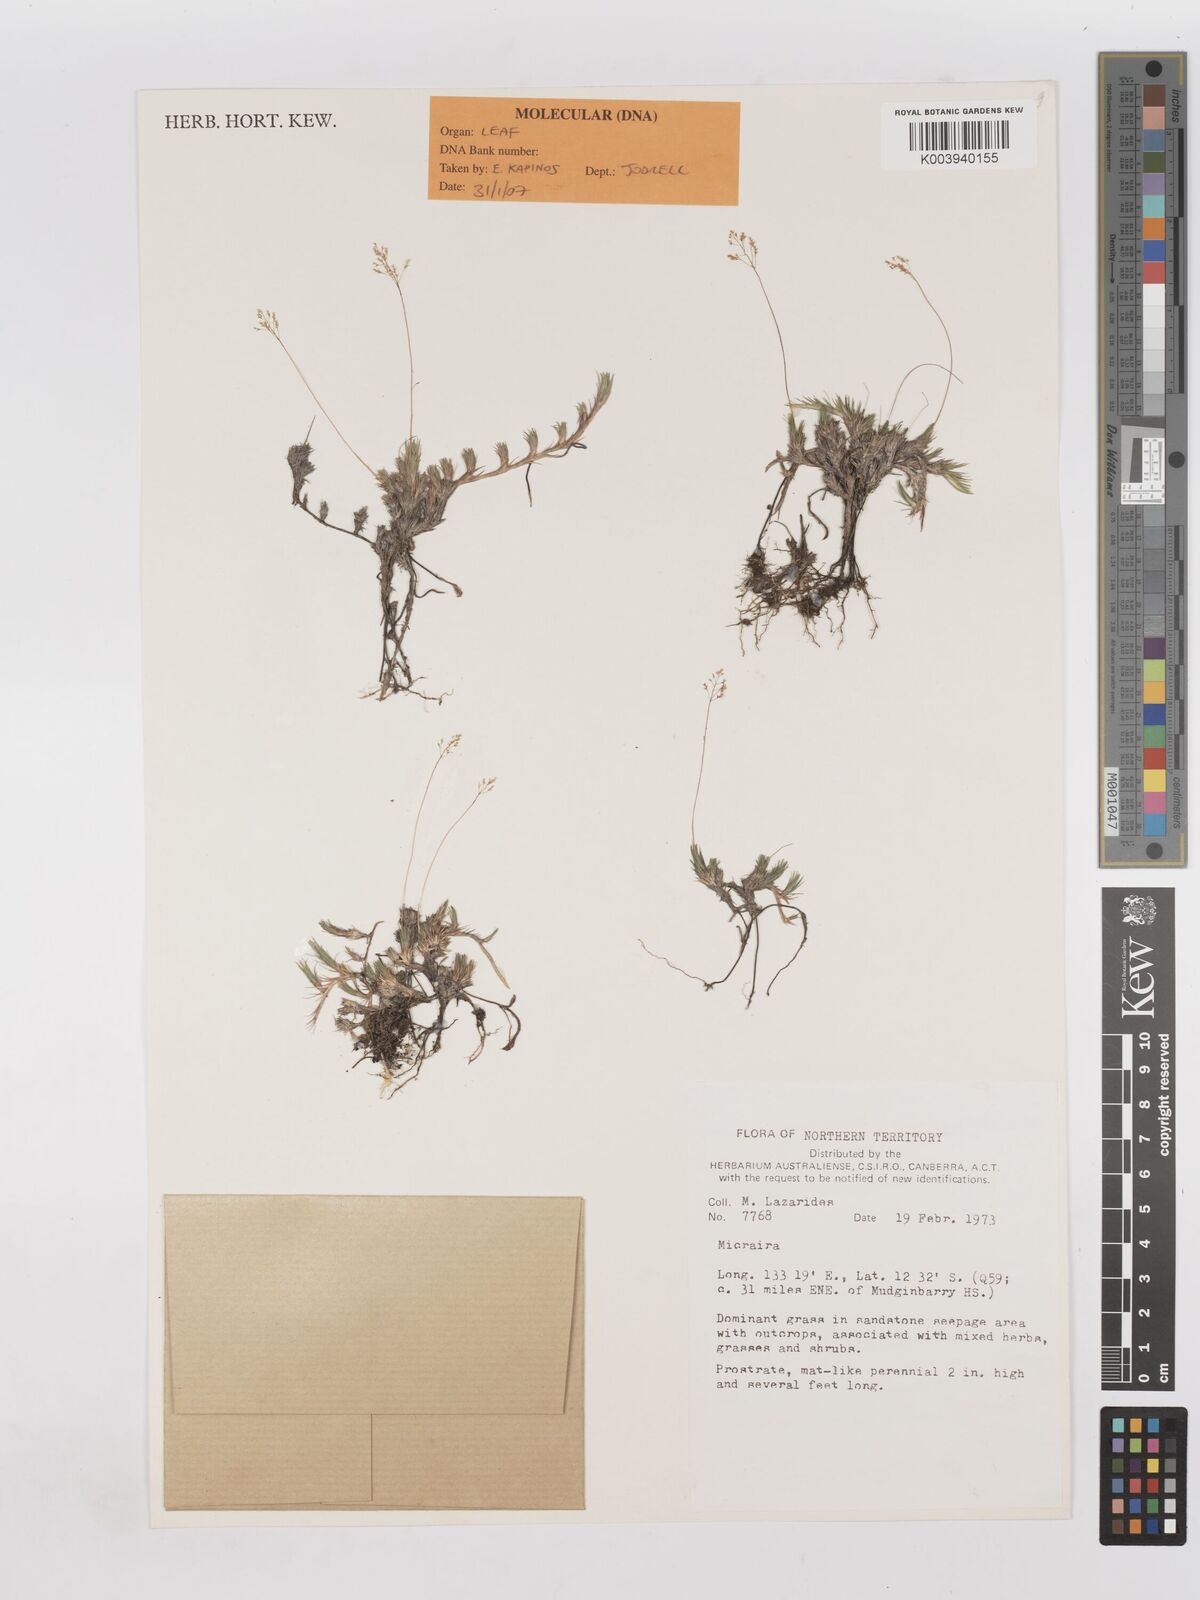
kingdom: Plantae
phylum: Tracheophyta
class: Liliopsida
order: Poales
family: Poaceae
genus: Micraira
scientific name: Micraira adamsii
